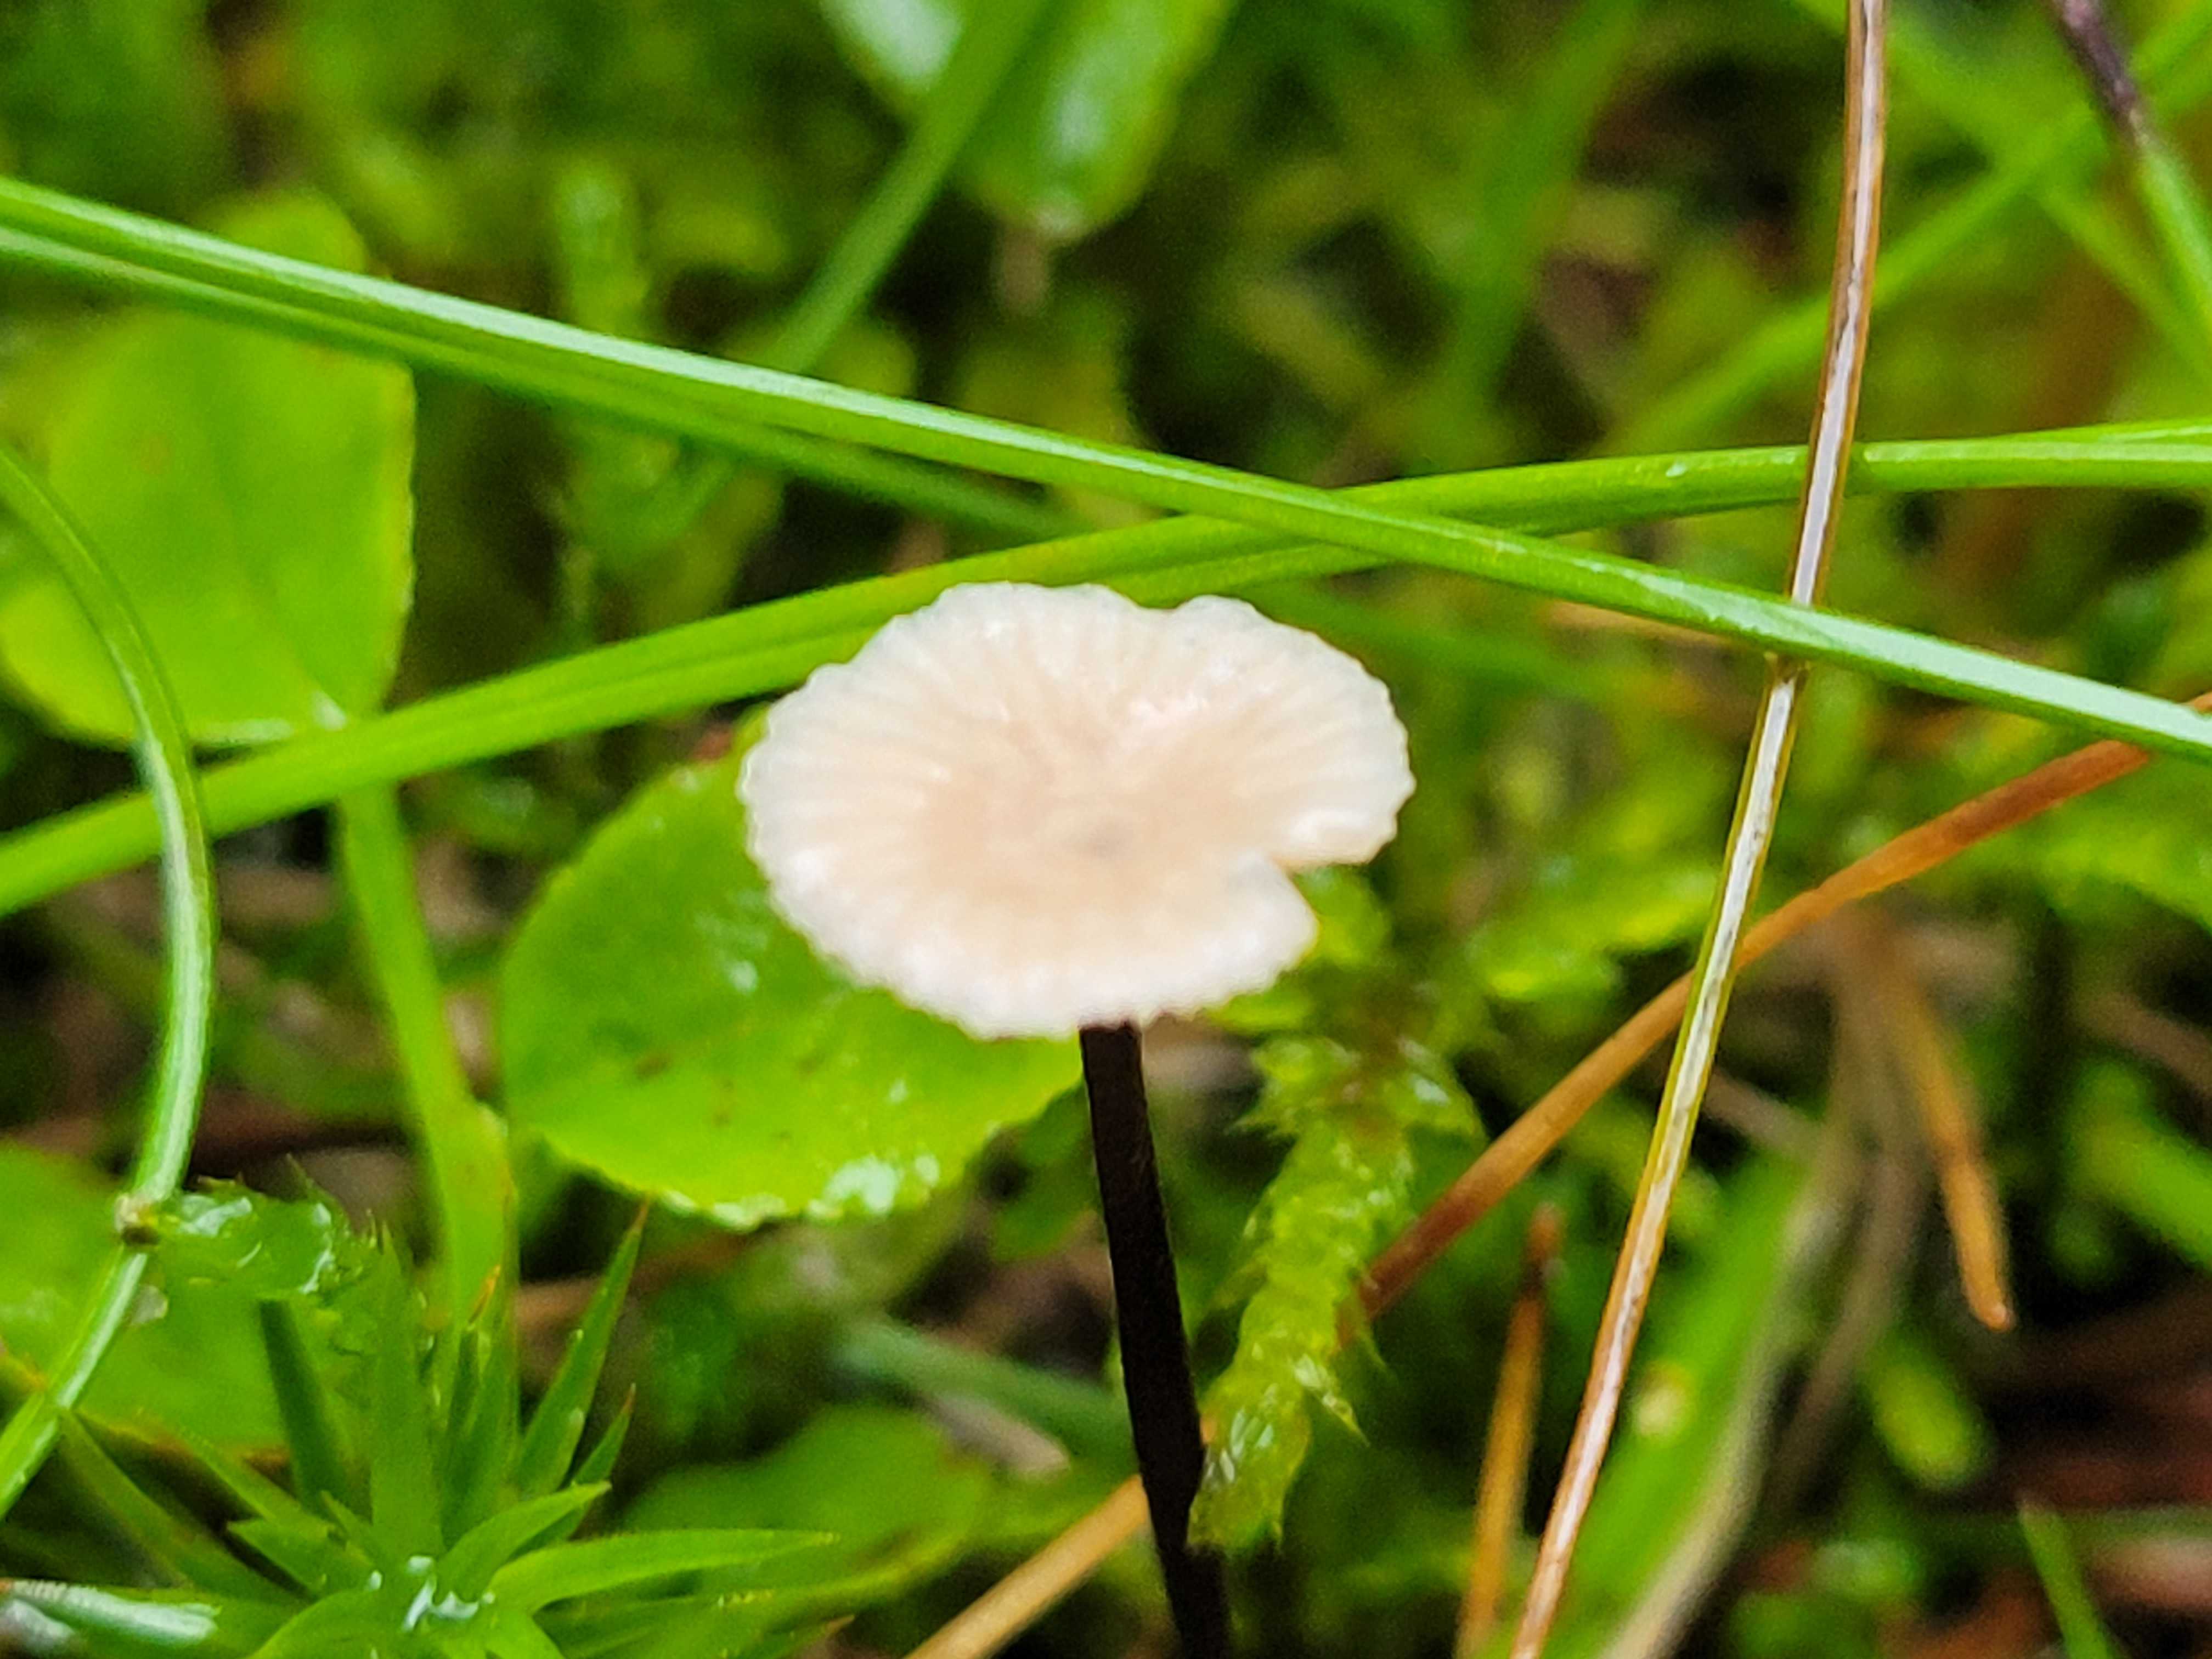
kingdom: Fungi
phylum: Basidiomycota
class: Agaricomycetes
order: Agaricales
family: Omphalotaceae
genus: Paragymnopus
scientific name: Paragymnopus perforans
